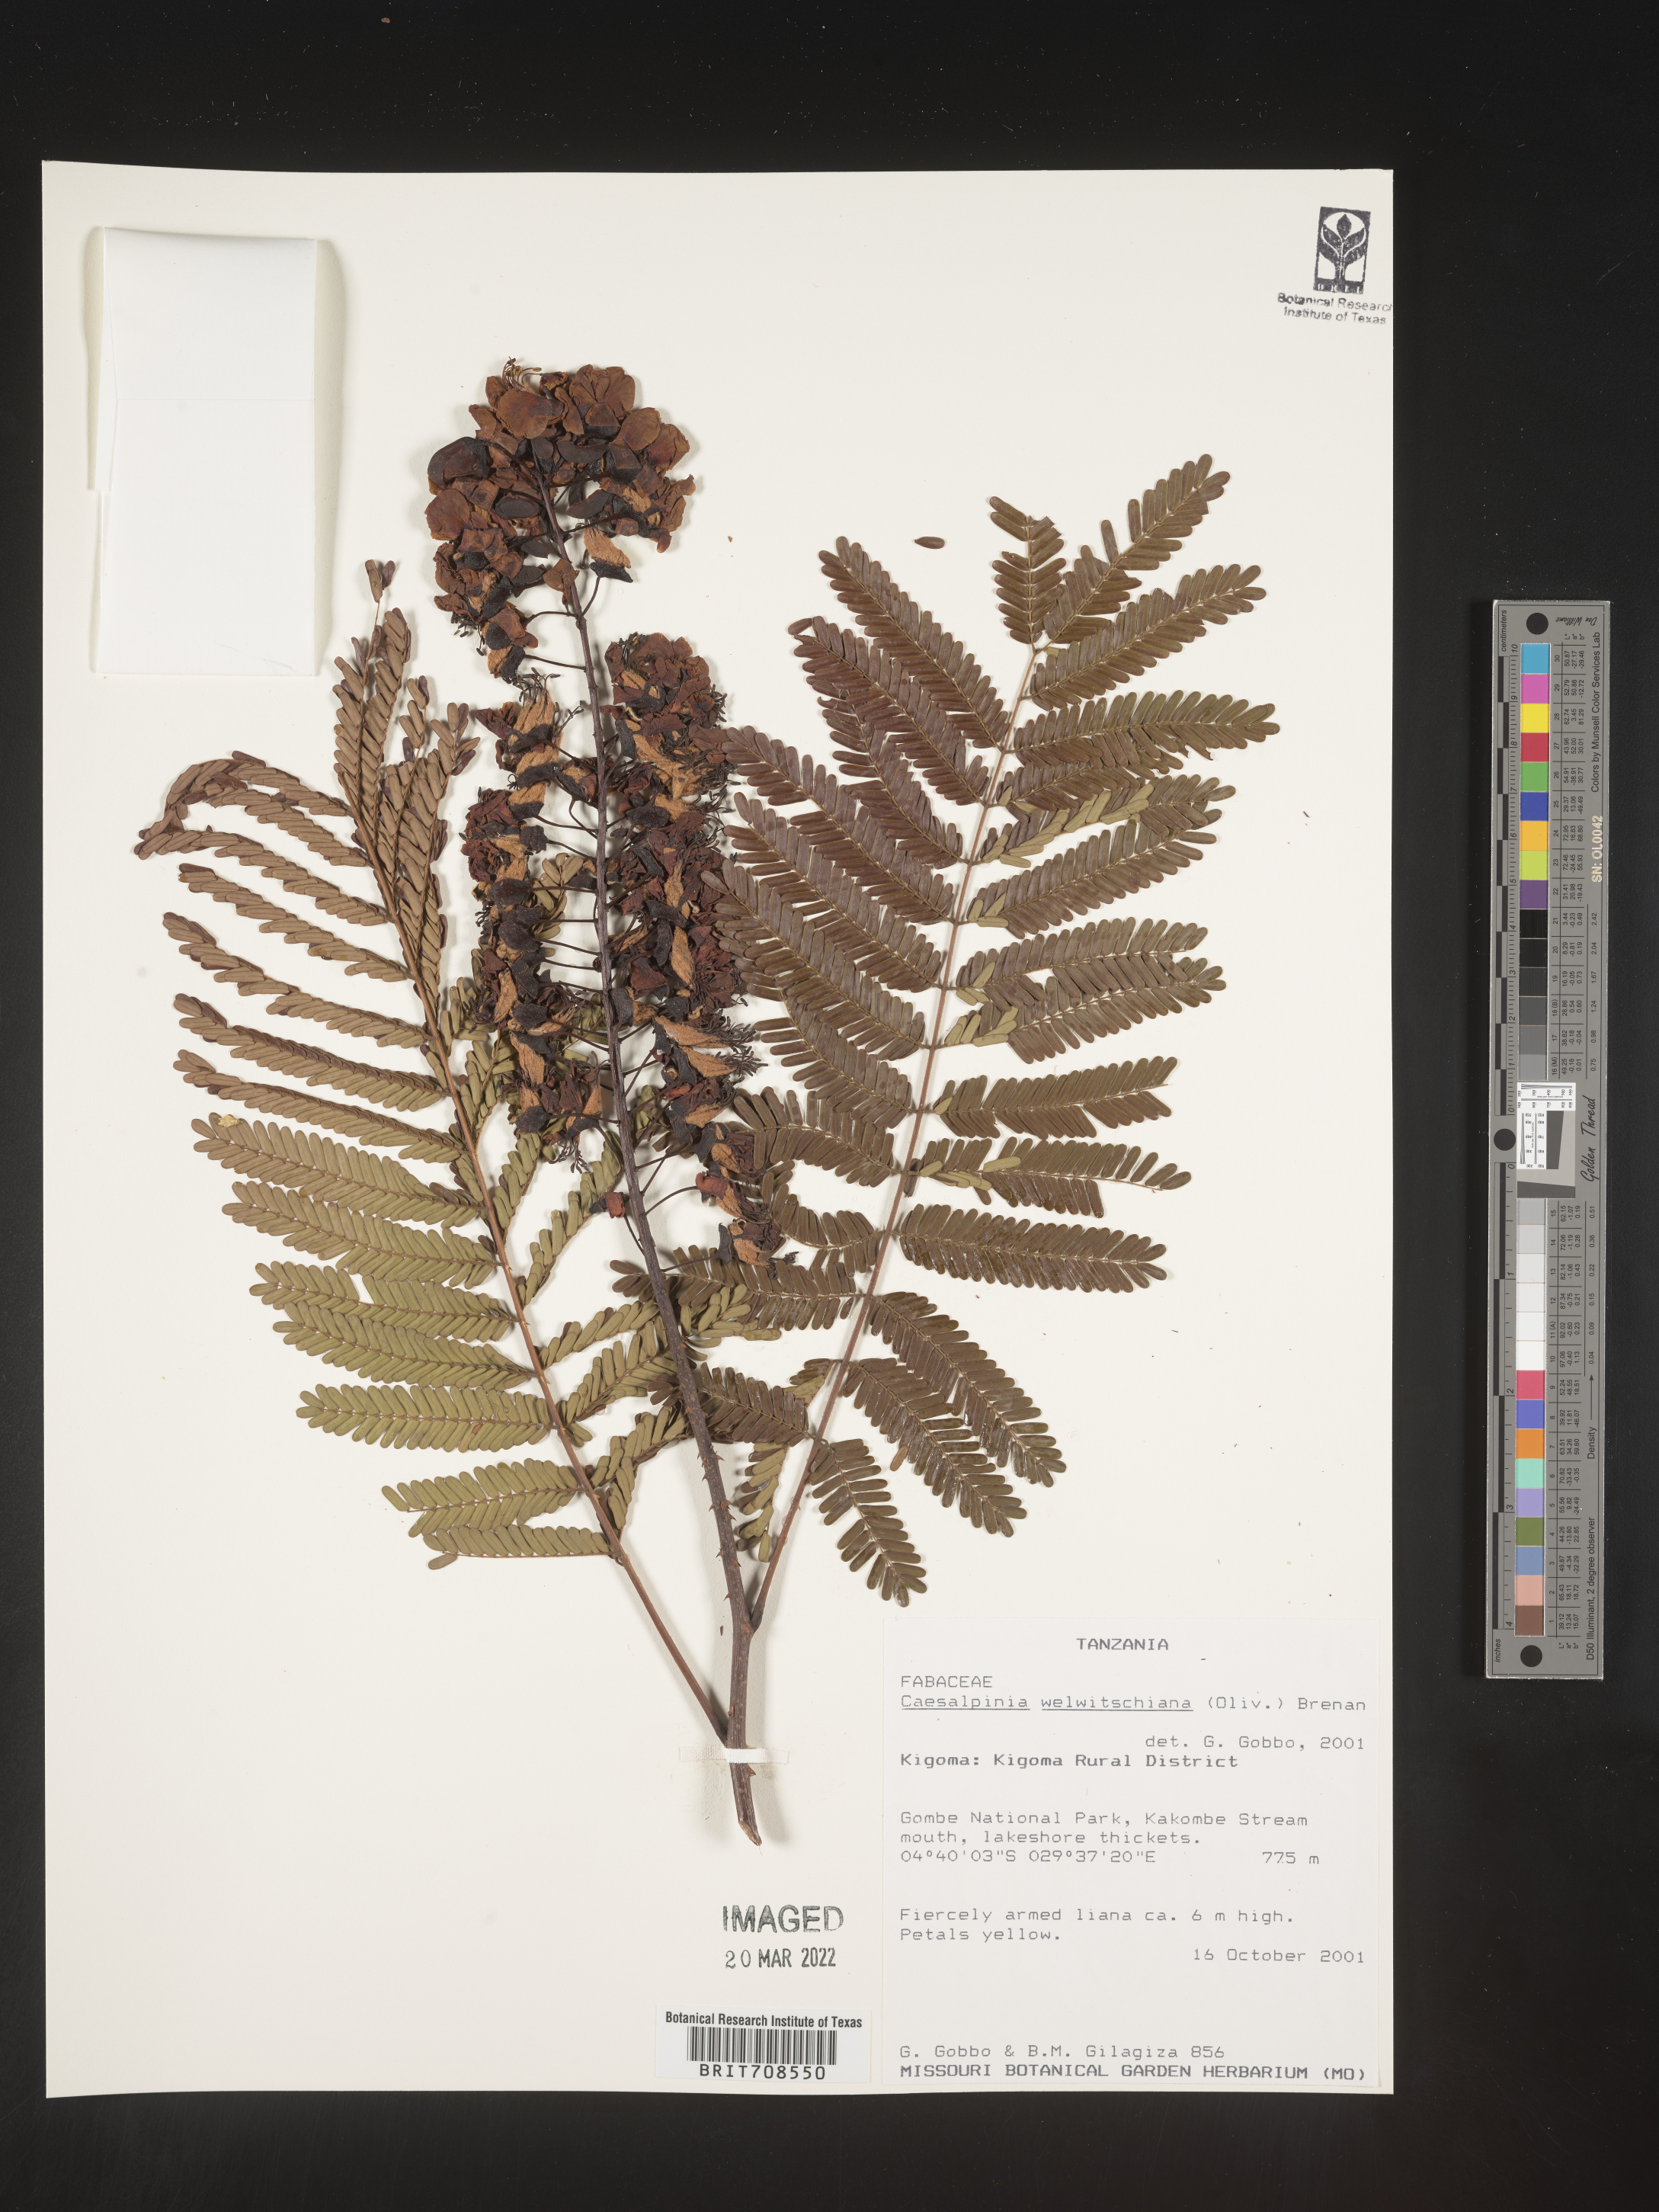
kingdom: Plantae
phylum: Tracheophyta
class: Magnoliopsida
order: Fabales
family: Fabaceae
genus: Caesalpinia
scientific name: Caesalpinia
